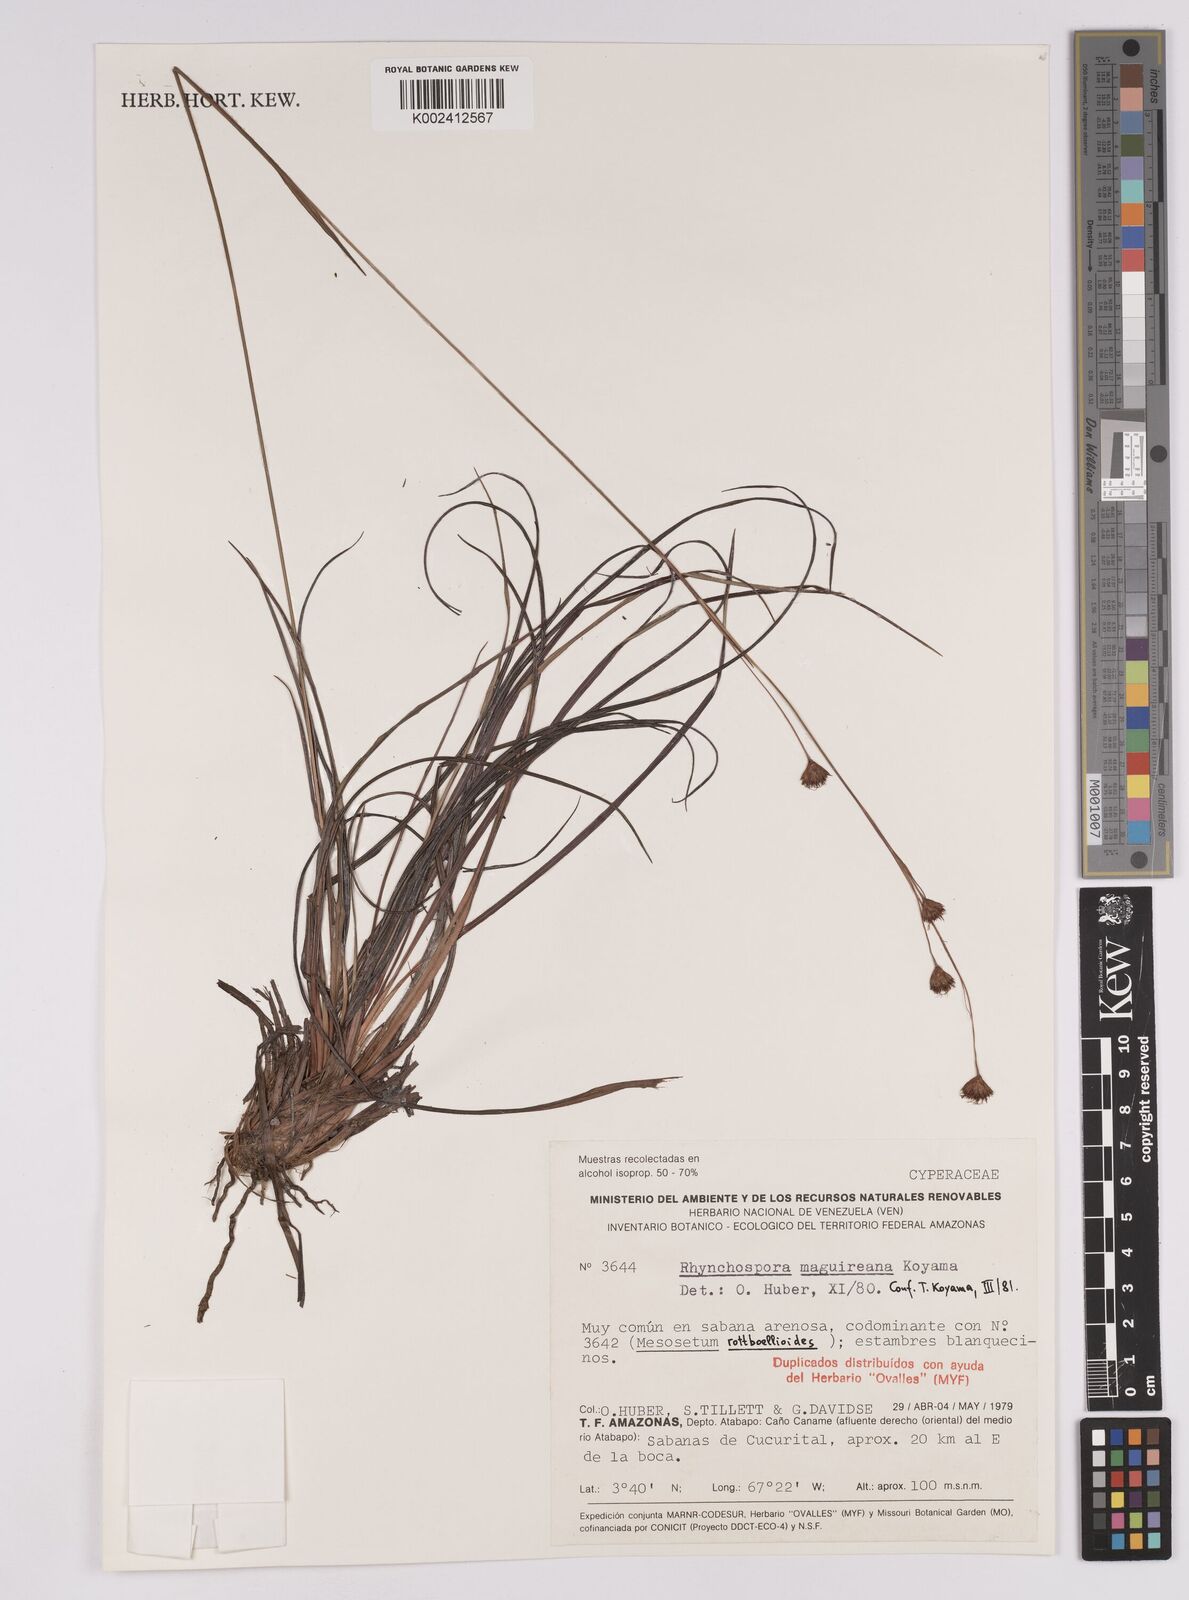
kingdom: Plantae
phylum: Tracheophyta
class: Liliopsida
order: Poales
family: Cyperaceae
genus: Rhynchospora
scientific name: Rhynchospora maguireana
